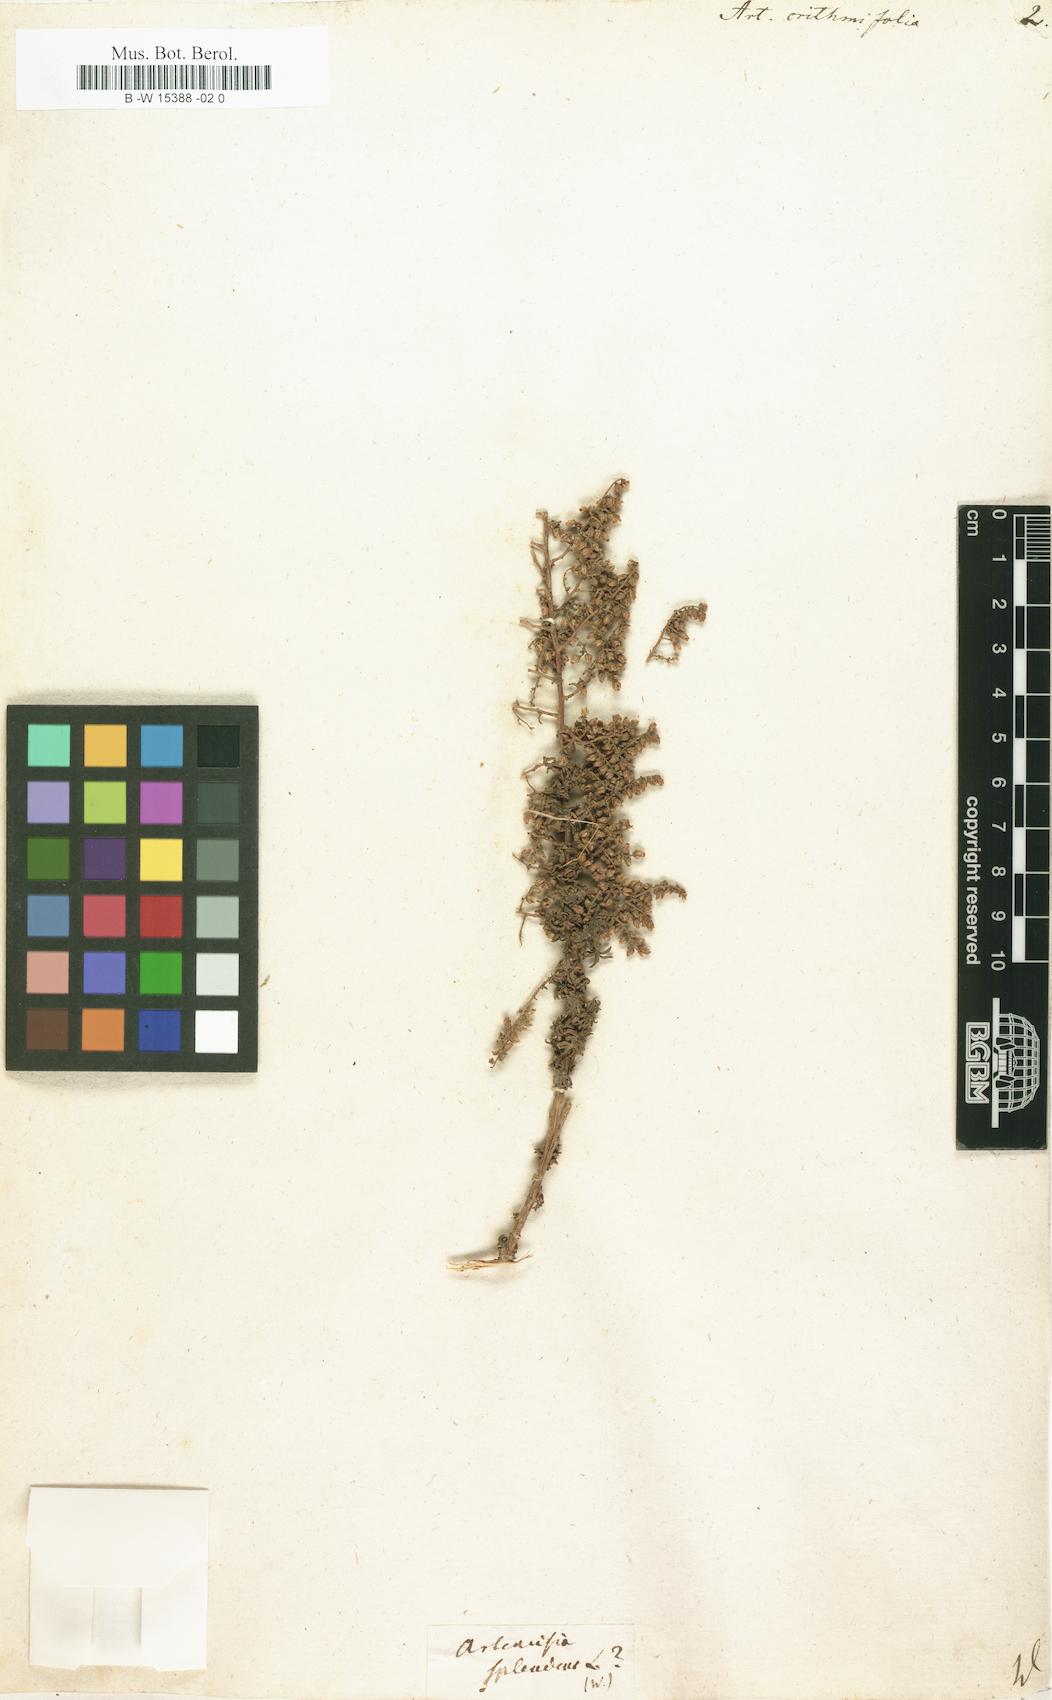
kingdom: Plantae
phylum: Tracheophyta
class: Magnoliopsida
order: Asterales
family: Asteraceae
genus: Artemisia
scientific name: Artemisia crithmifolia
